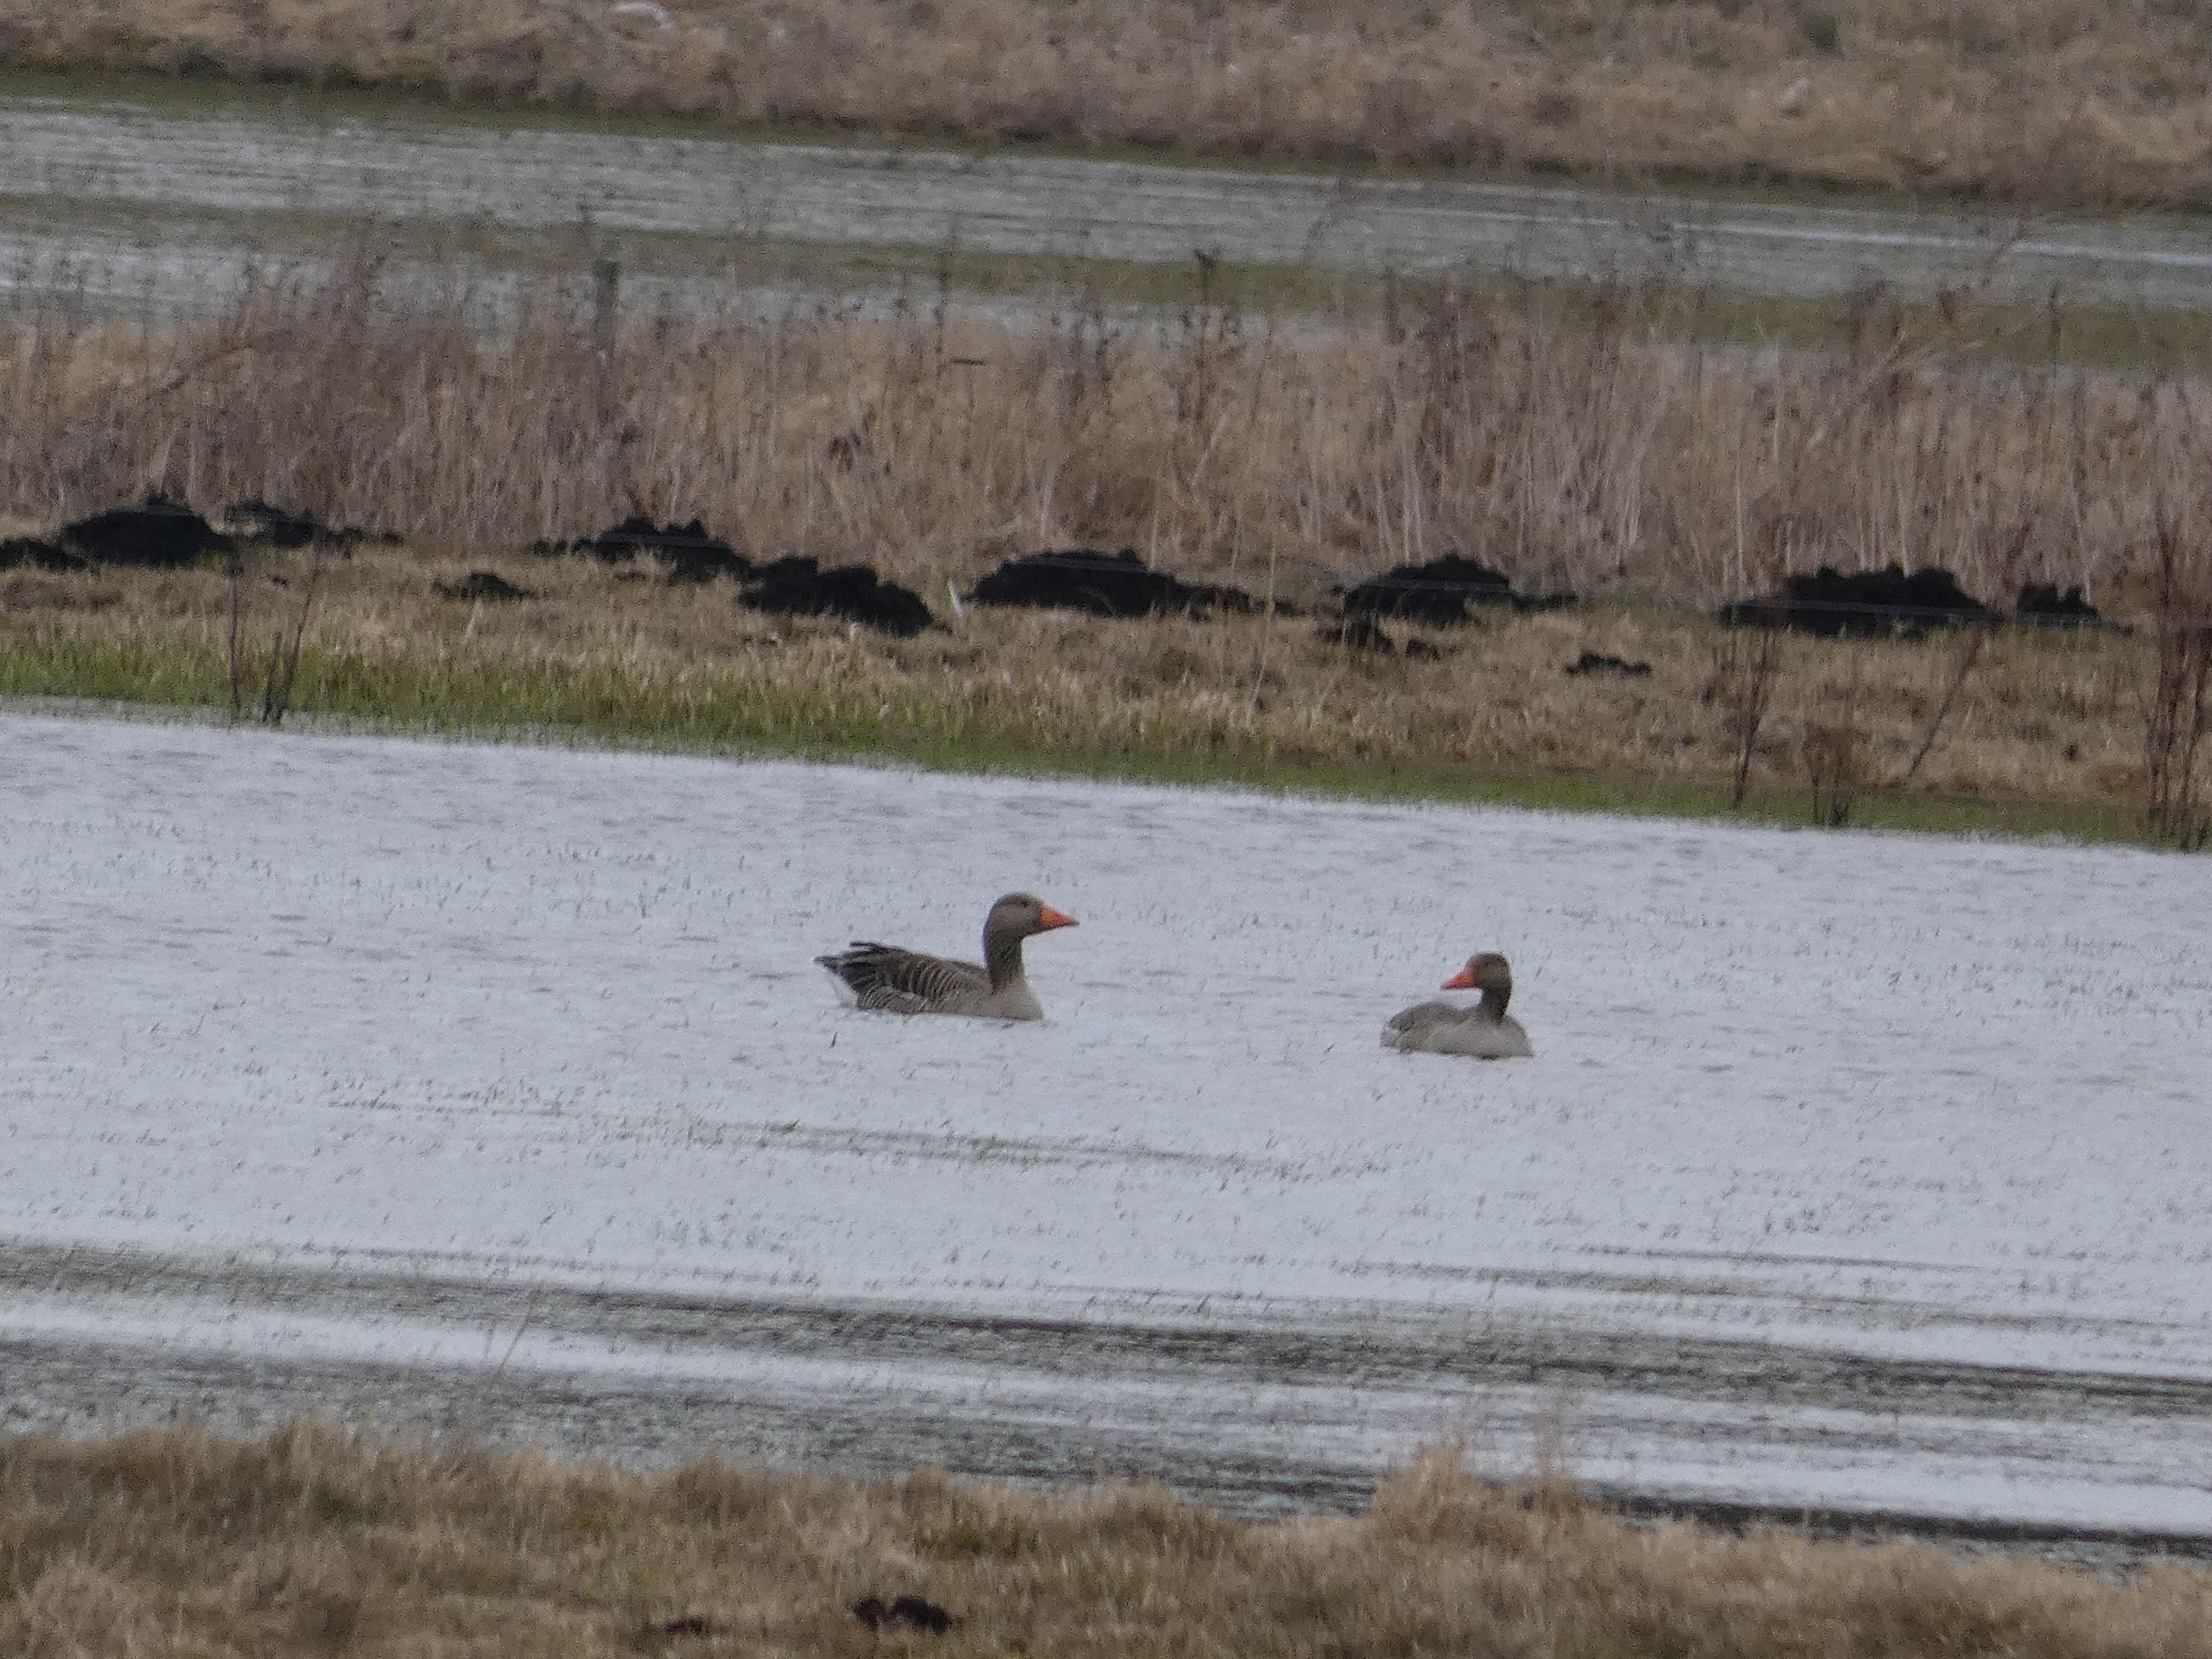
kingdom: Animalia
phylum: Chordata
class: Aves
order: Anseriformes
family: Anatidae
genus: Anser
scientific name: Anser anser
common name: Grågås
